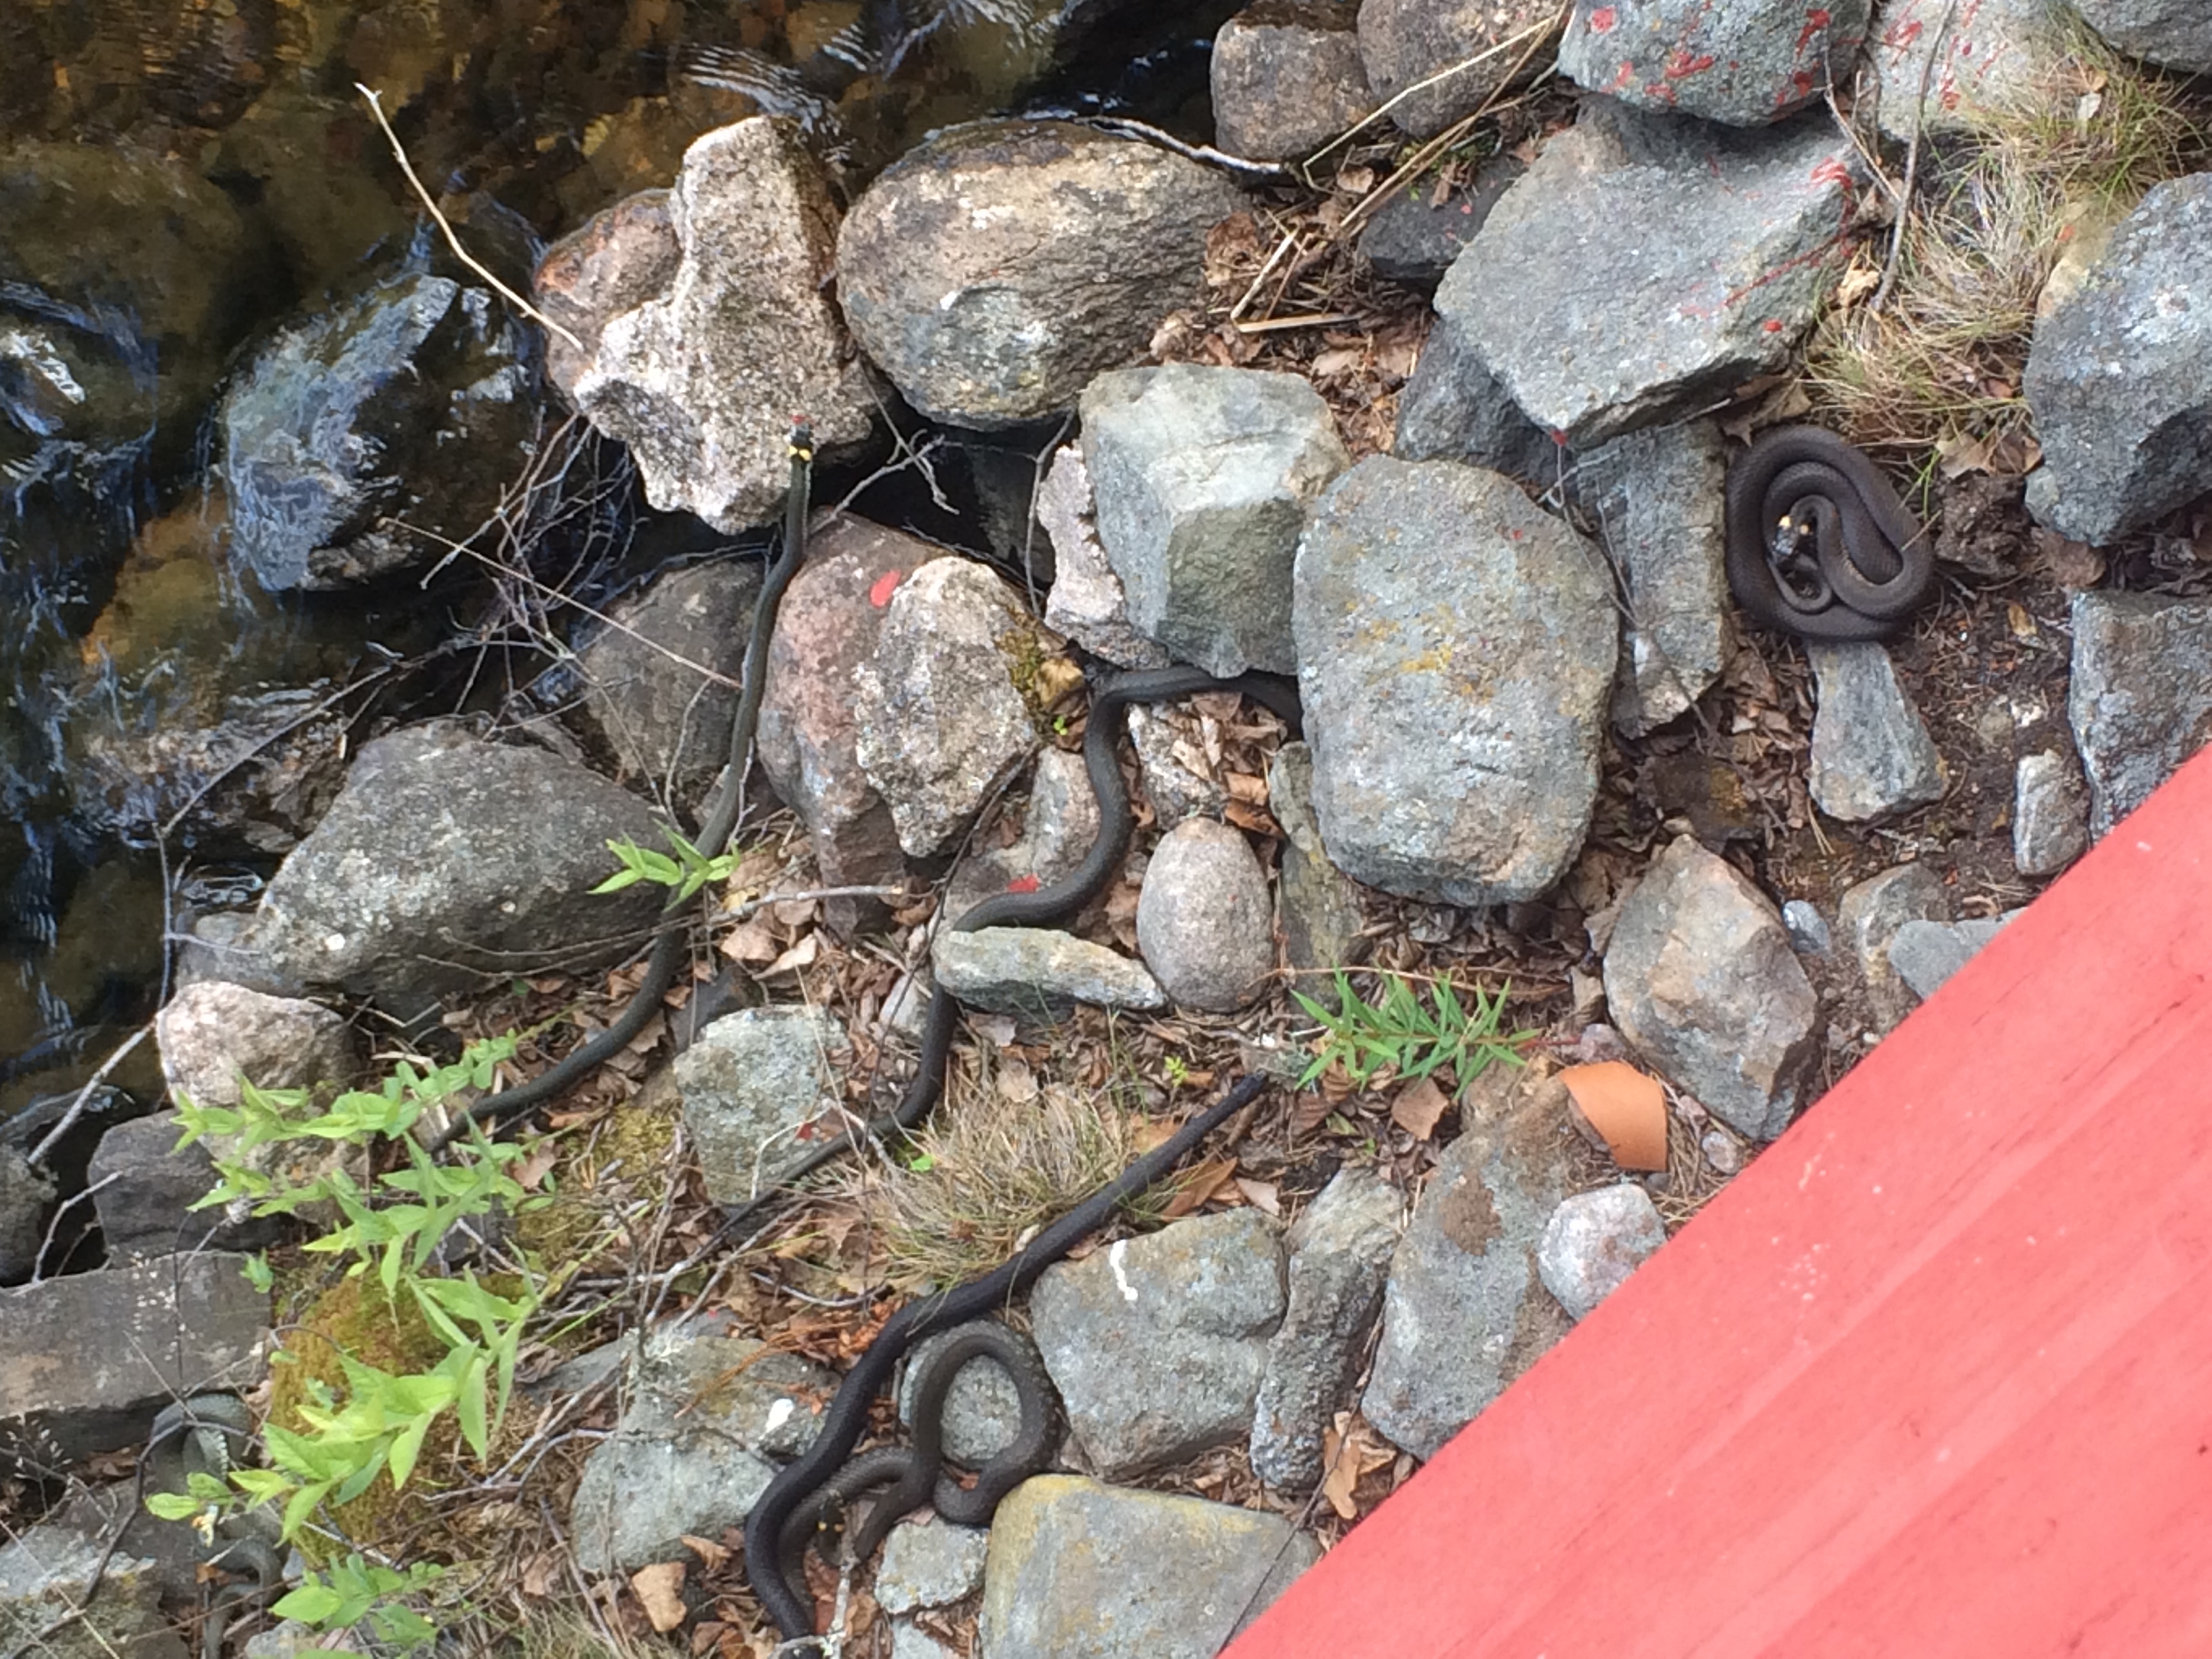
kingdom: Animalia
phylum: Chordata
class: Squamata
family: Colubridae
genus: Natrix
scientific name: Natrix natrix
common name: Grass snake
